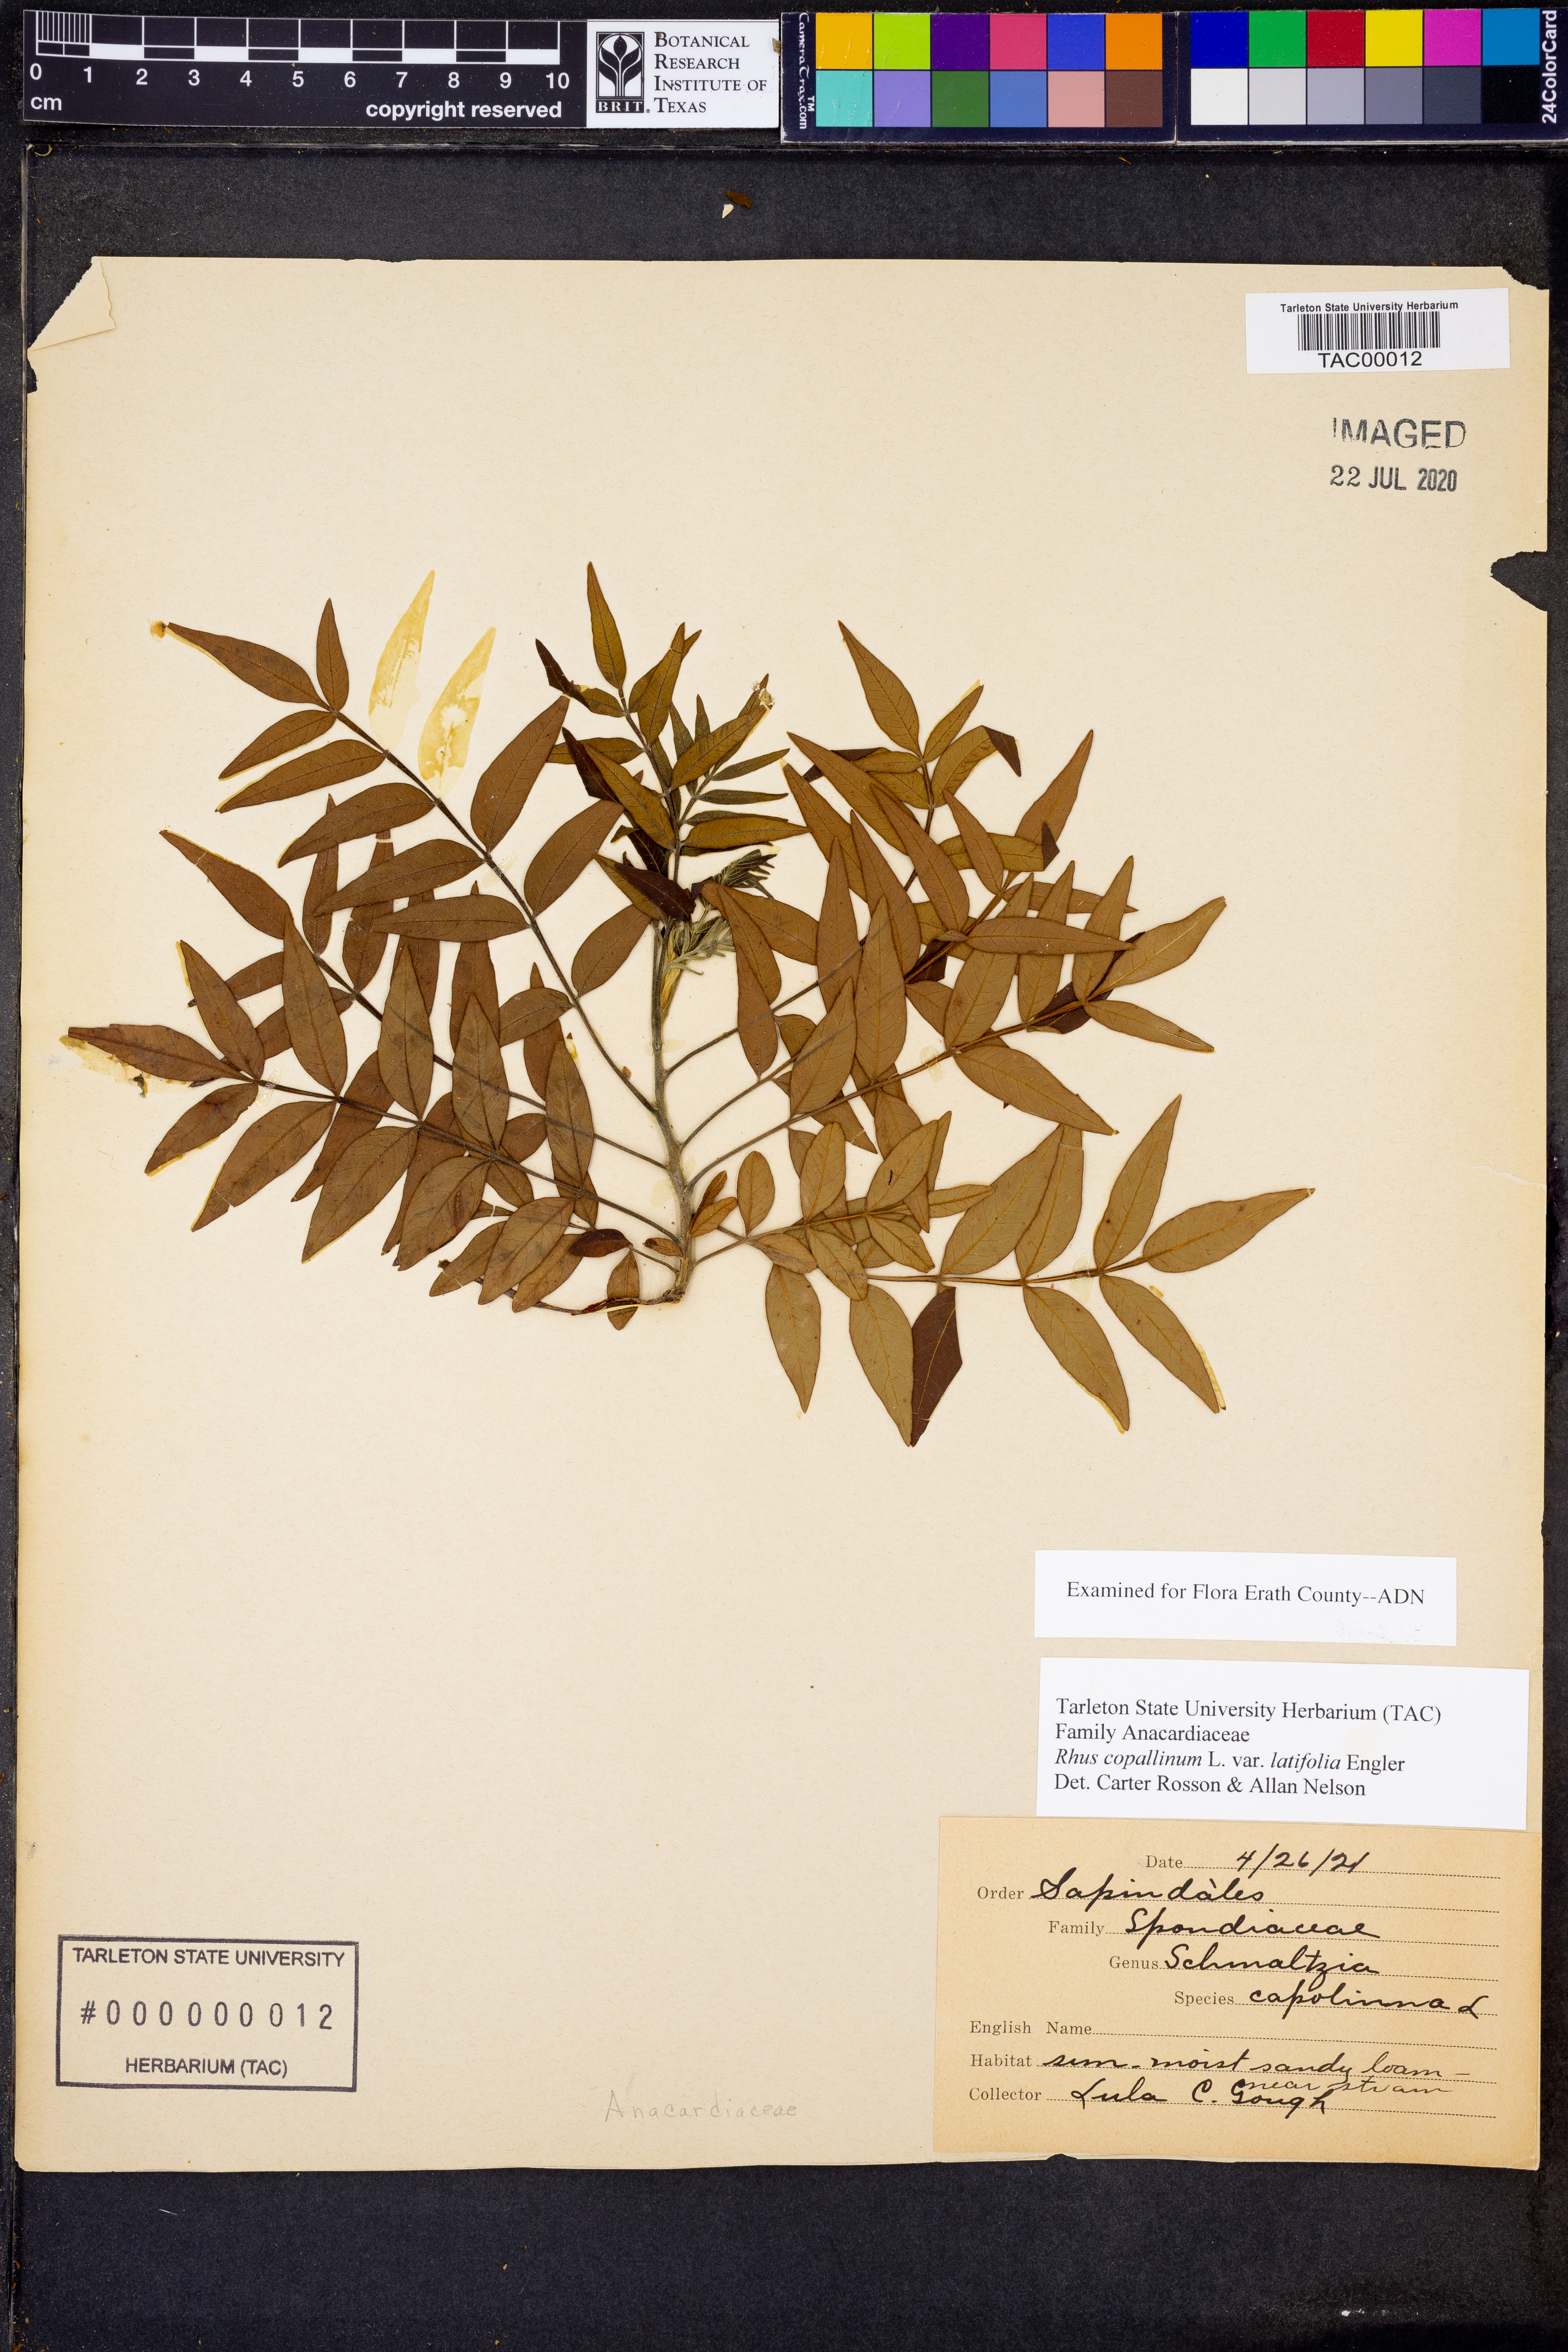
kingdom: Plantae
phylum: Tracheophyta
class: Magnoliopsida
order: Sapindales
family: Anacardiaceae
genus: Rhus
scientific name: Rhus copallina
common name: Shining sumac
